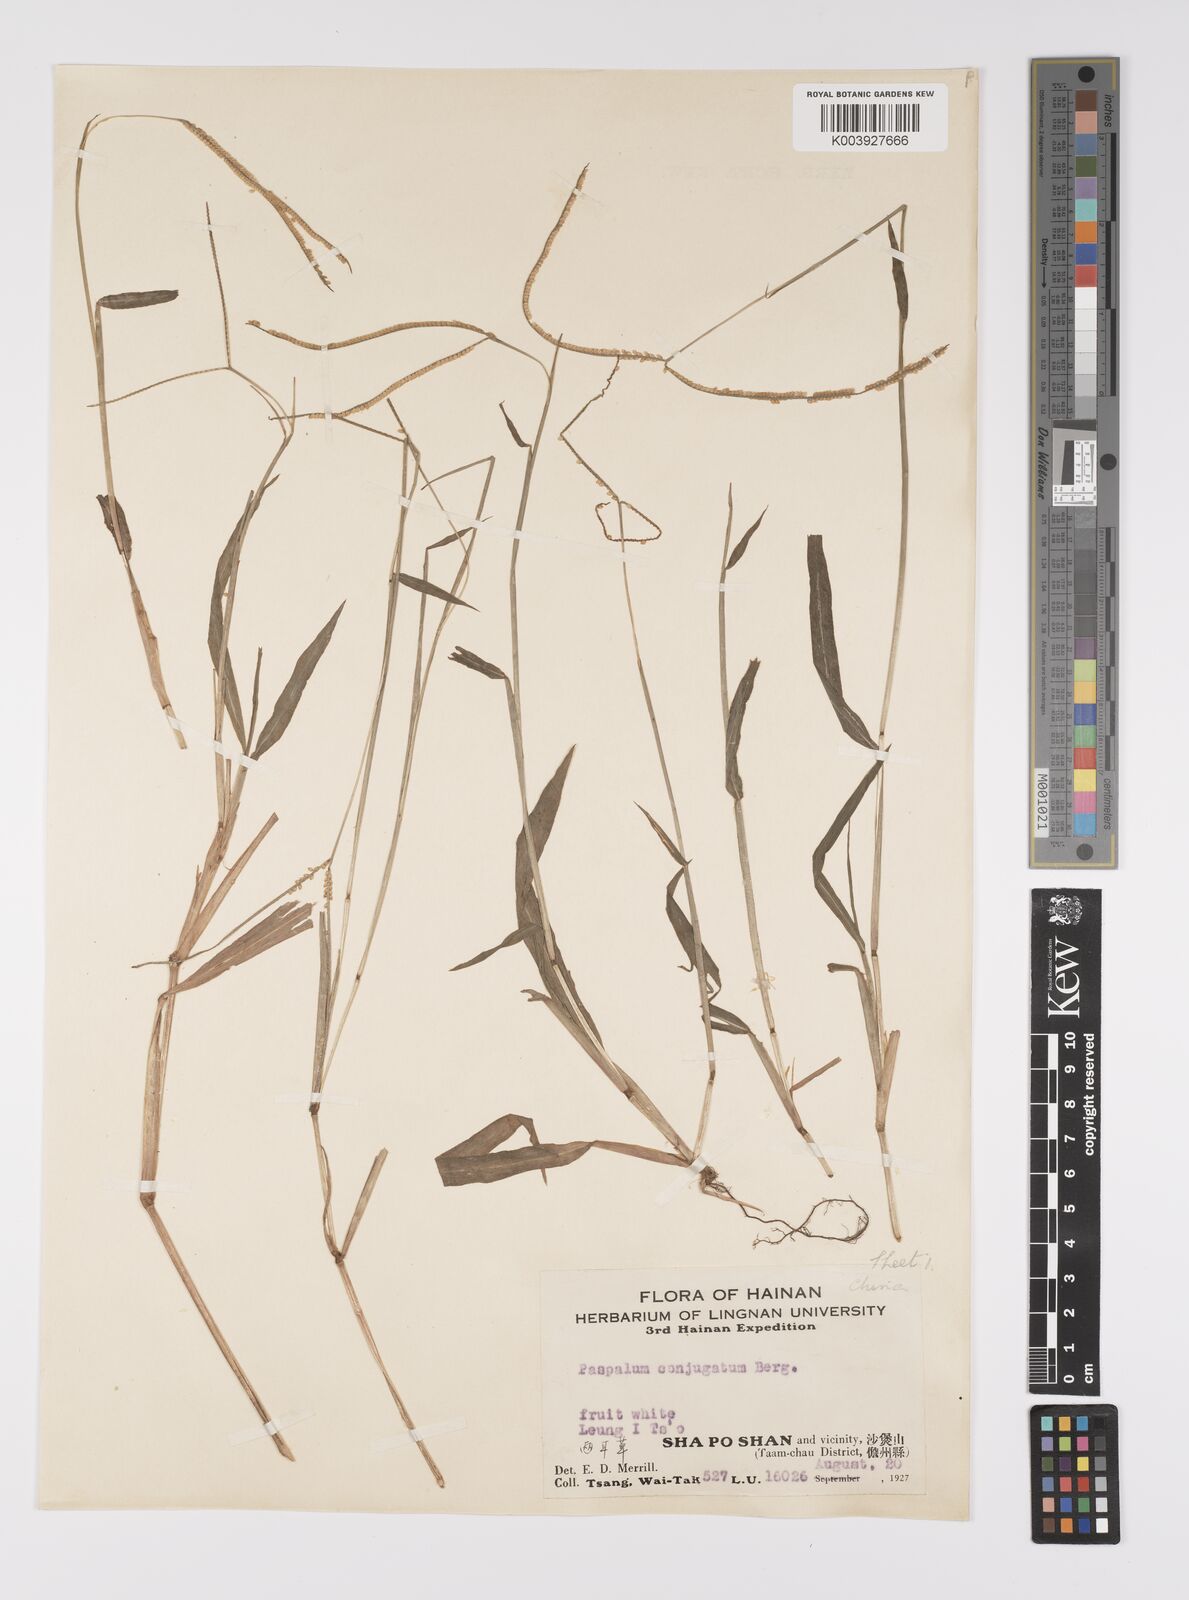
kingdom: Plantae
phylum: Tracheophyta
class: Liliopsida
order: Poales
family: Poaceae
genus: Paspalum
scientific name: Paspalum conjugatum
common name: Hilograss
